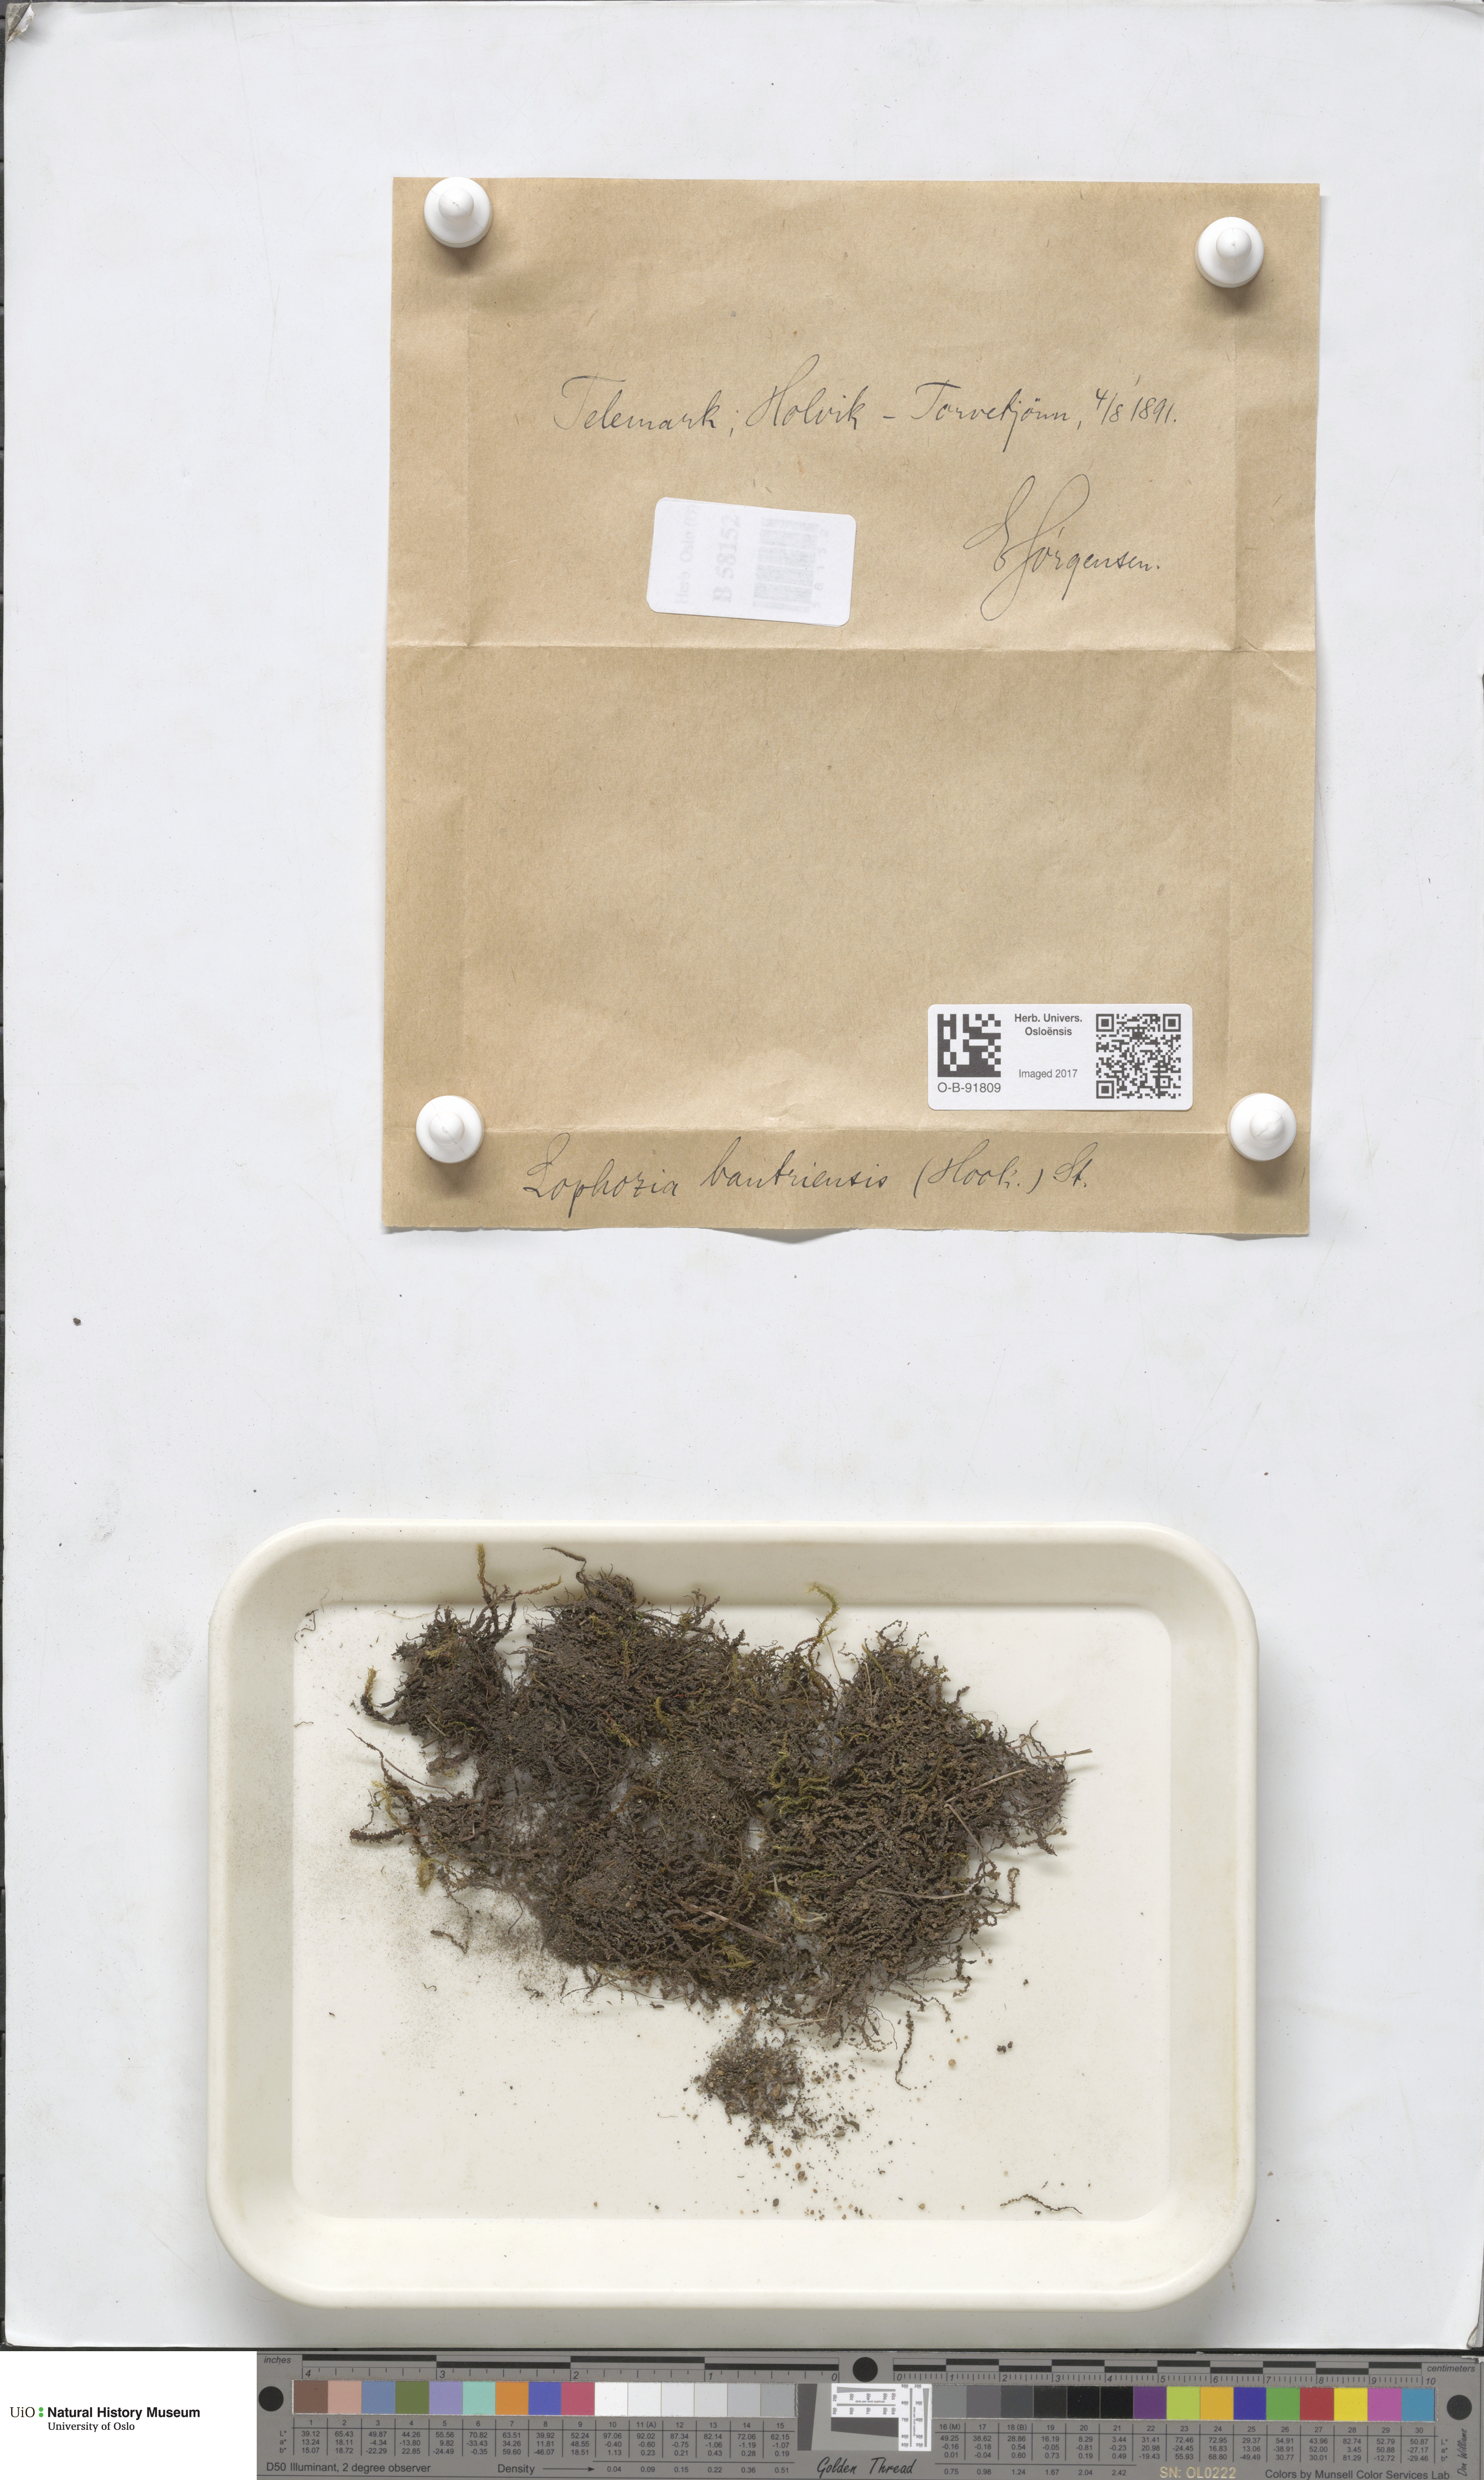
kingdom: Plantae
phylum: Marchantiophyta
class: Jungermanniopsida
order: Jungermanniales
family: Jungermanniaceae
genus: Mesoptychia
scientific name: Mesoptychia bantriensis
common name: Bantry notchwort
